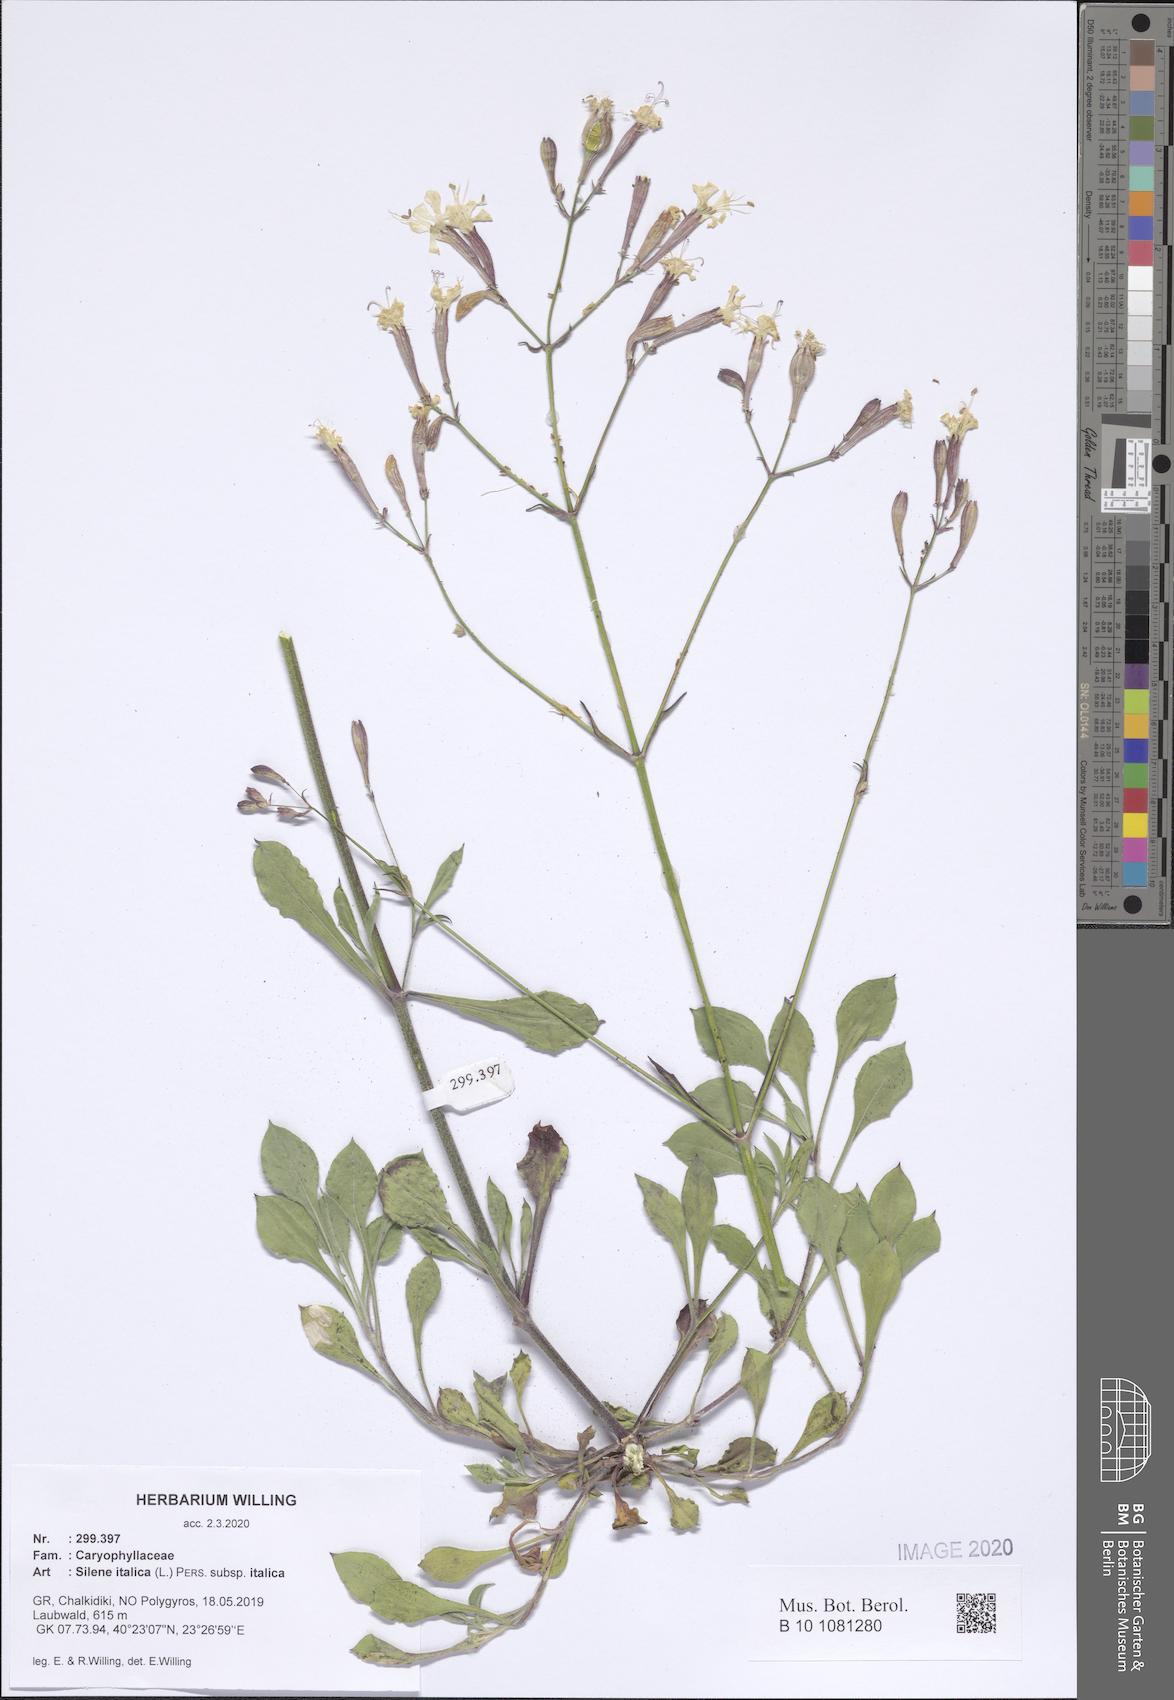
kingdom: Plantae
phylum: Tracheophyta
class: Magnoliopsida
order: Caryophyllales
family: Caryophyllaceae
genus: Silene
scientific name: Silene italica
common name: Italian catchfly
